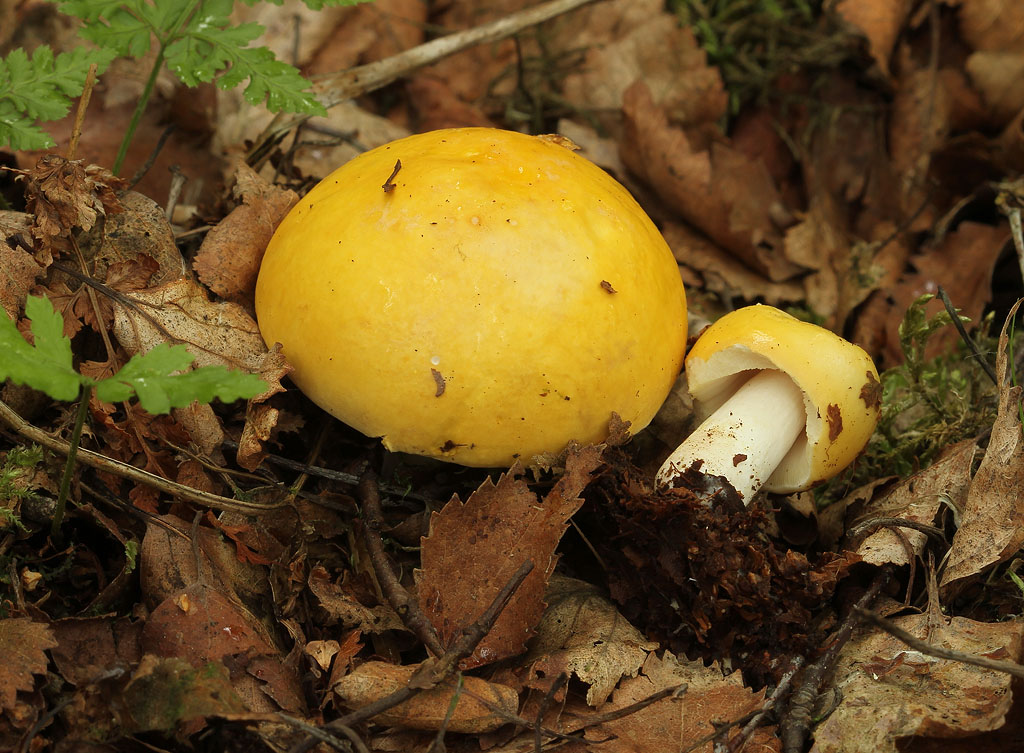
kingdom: Fungi
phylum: Basidiomycota
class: Agaricomycetes
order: Russulales
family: Russulaceae
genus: Russula
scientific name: Russula claroflava
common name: birke-skørhat
